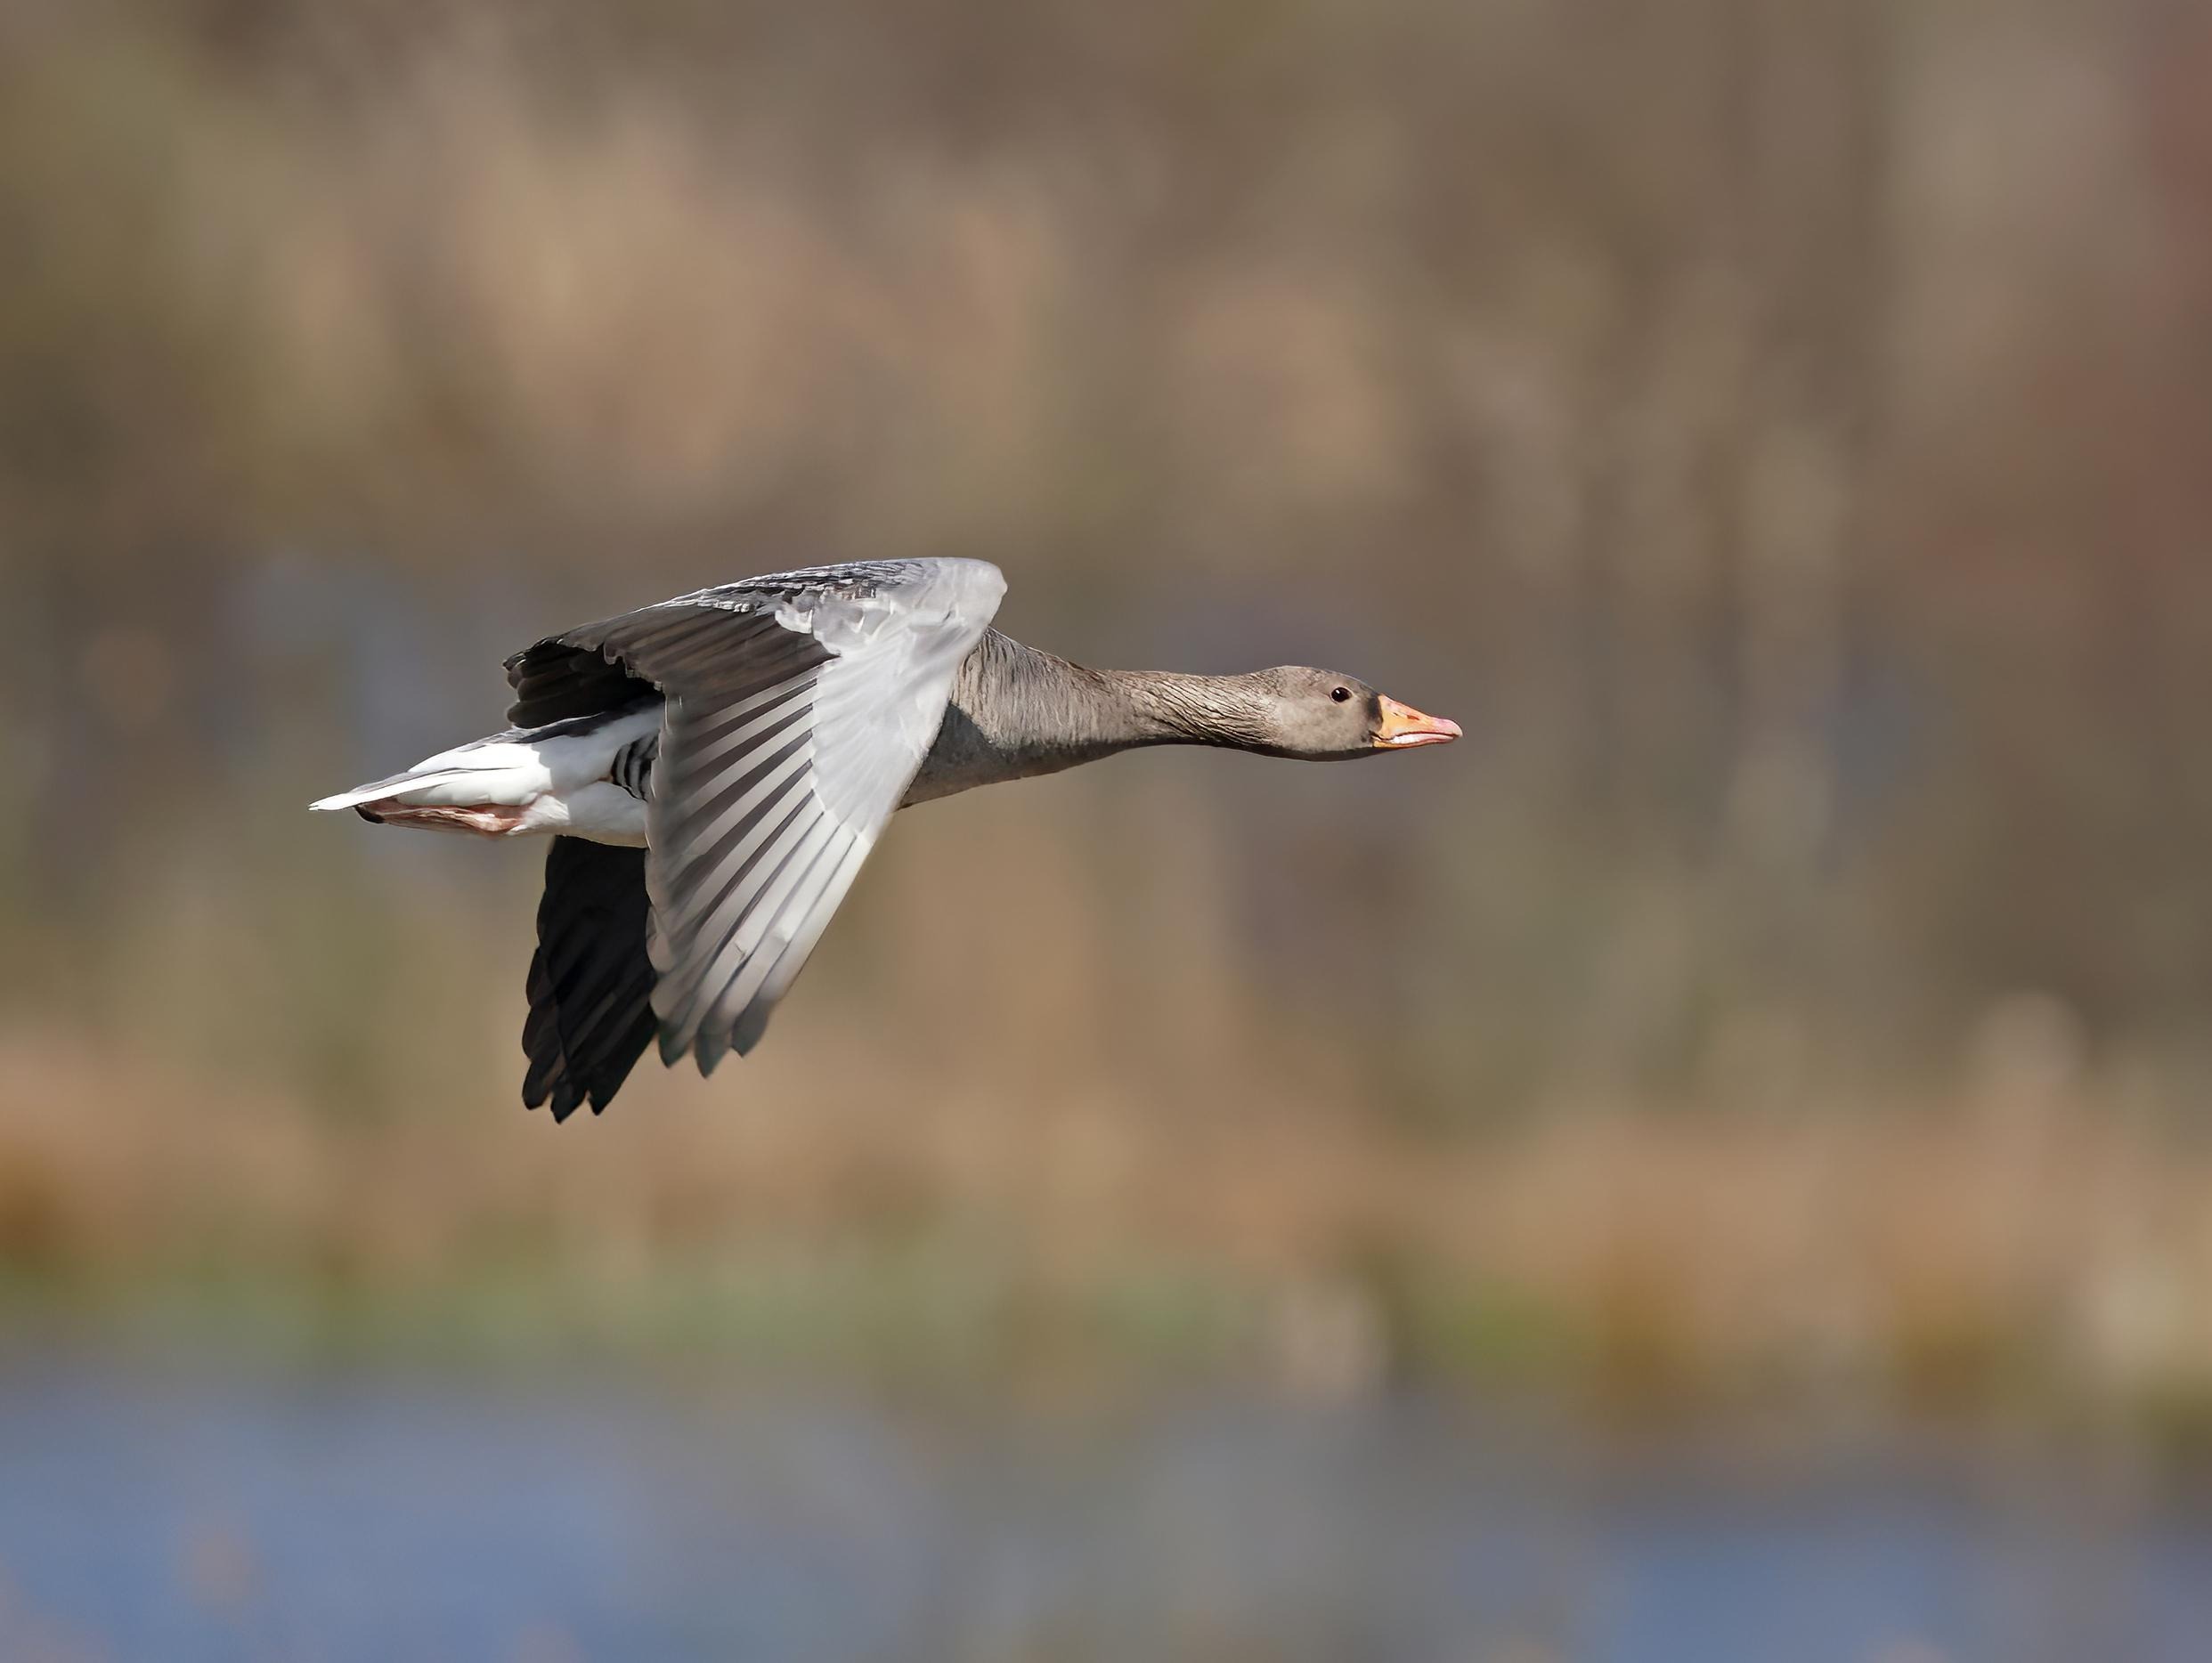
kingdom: Animalia
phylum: Chordata
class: Aves
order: Anseriformes
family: Anatidae
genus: Anser
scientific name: Anser anser
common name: Grågås
